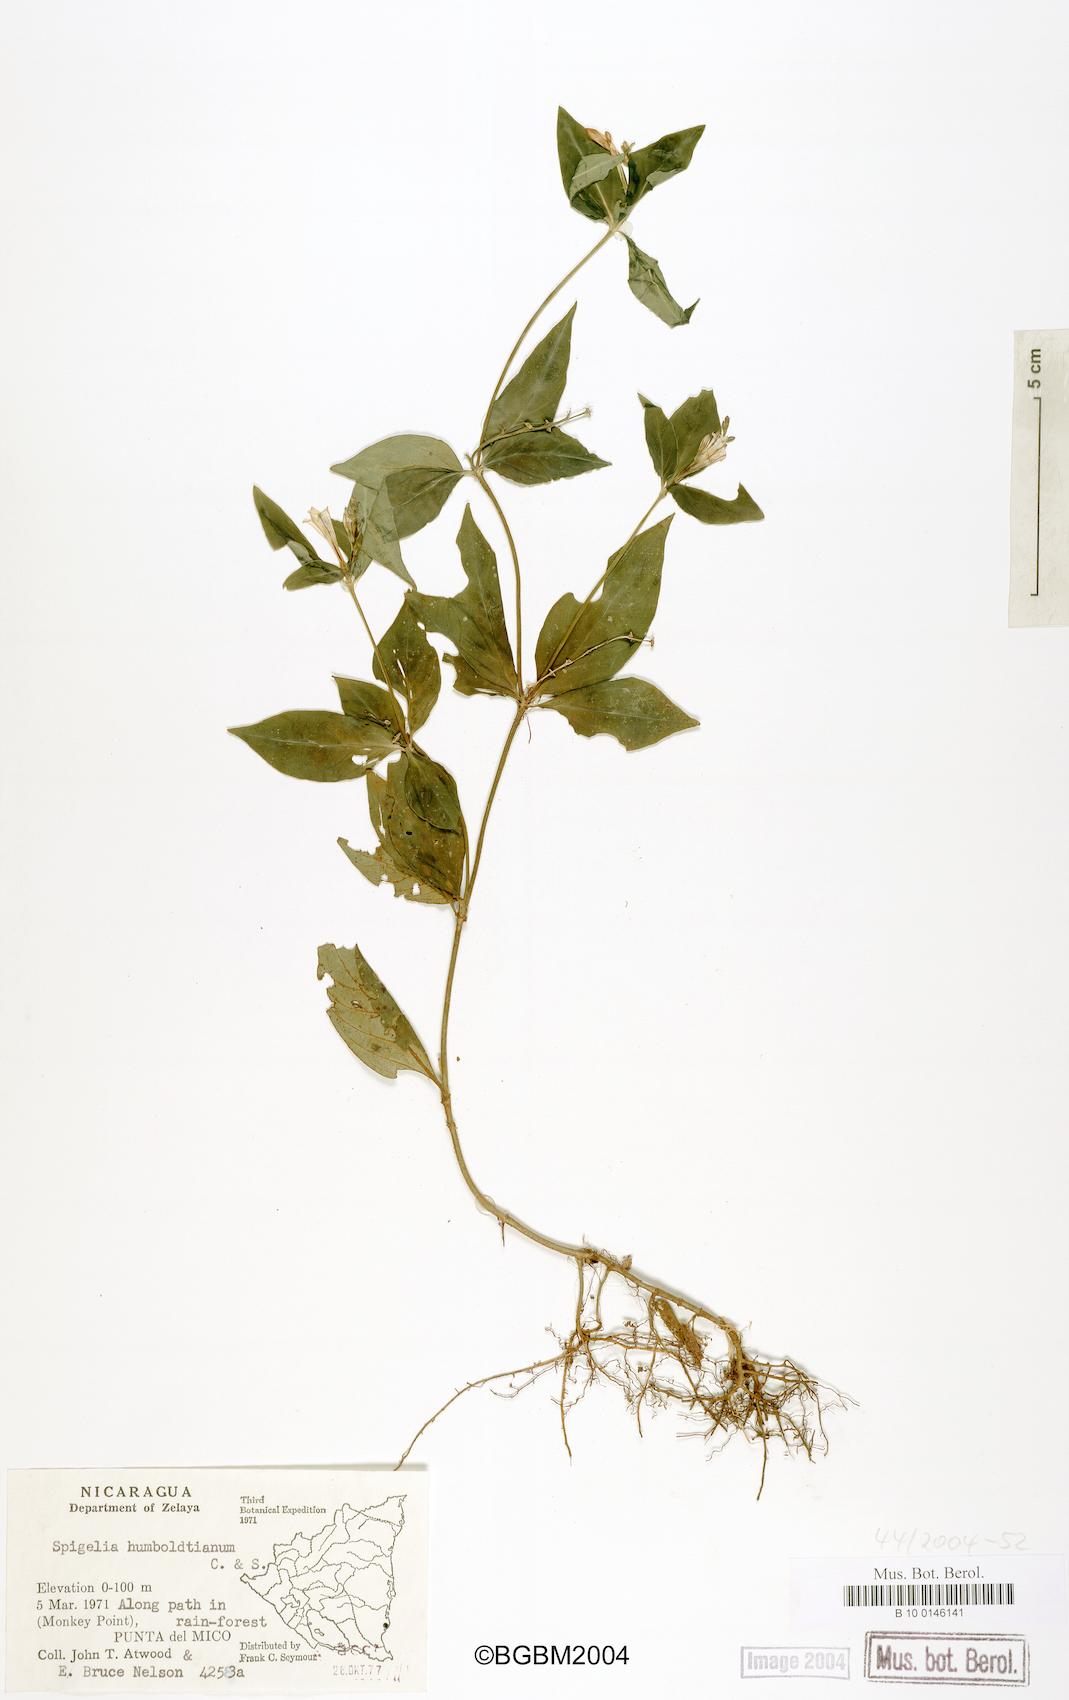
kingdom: Plantae
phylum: Tracheophyta
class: Magnoliopsida
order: Gentianales
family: Loganiaceae
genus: Spigelia
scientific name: Spigelia humboldtiana
